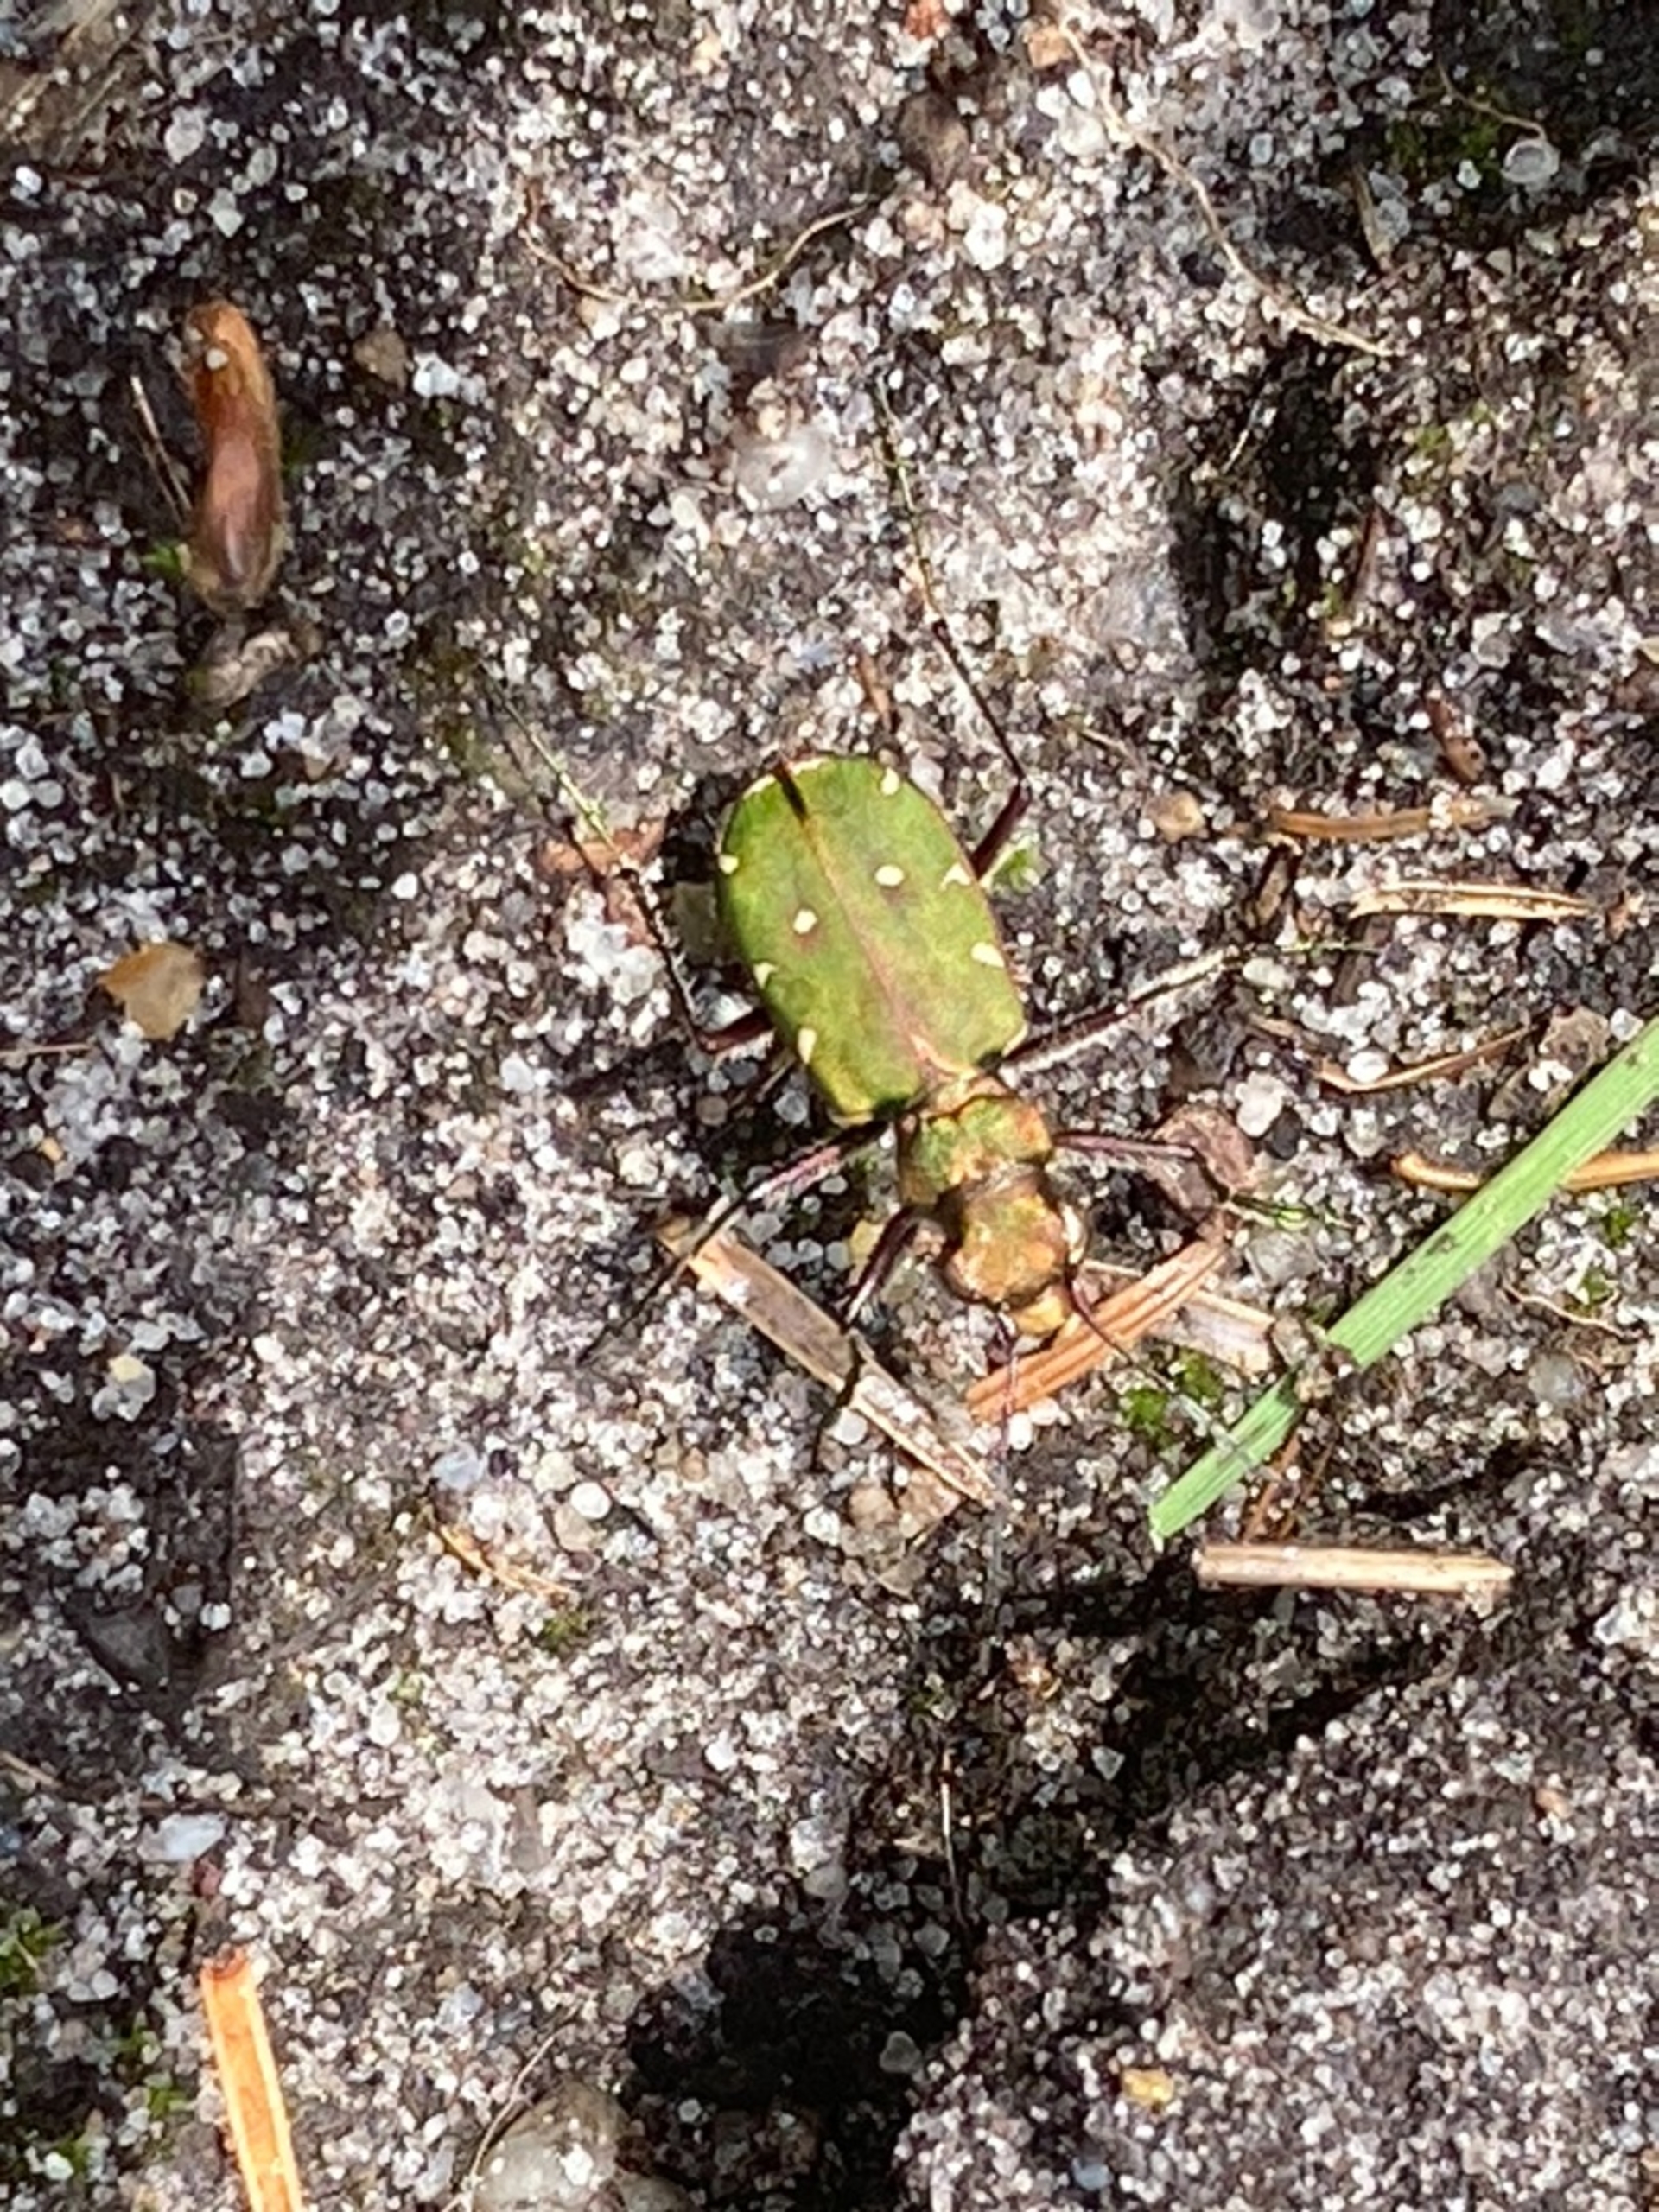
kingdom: Animalia
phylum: Arthropoda
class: Insecta
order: Coleoptera
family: Carabidae
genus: Cicindela
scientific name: Cicindela campestris
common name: Grøn sandspringer
